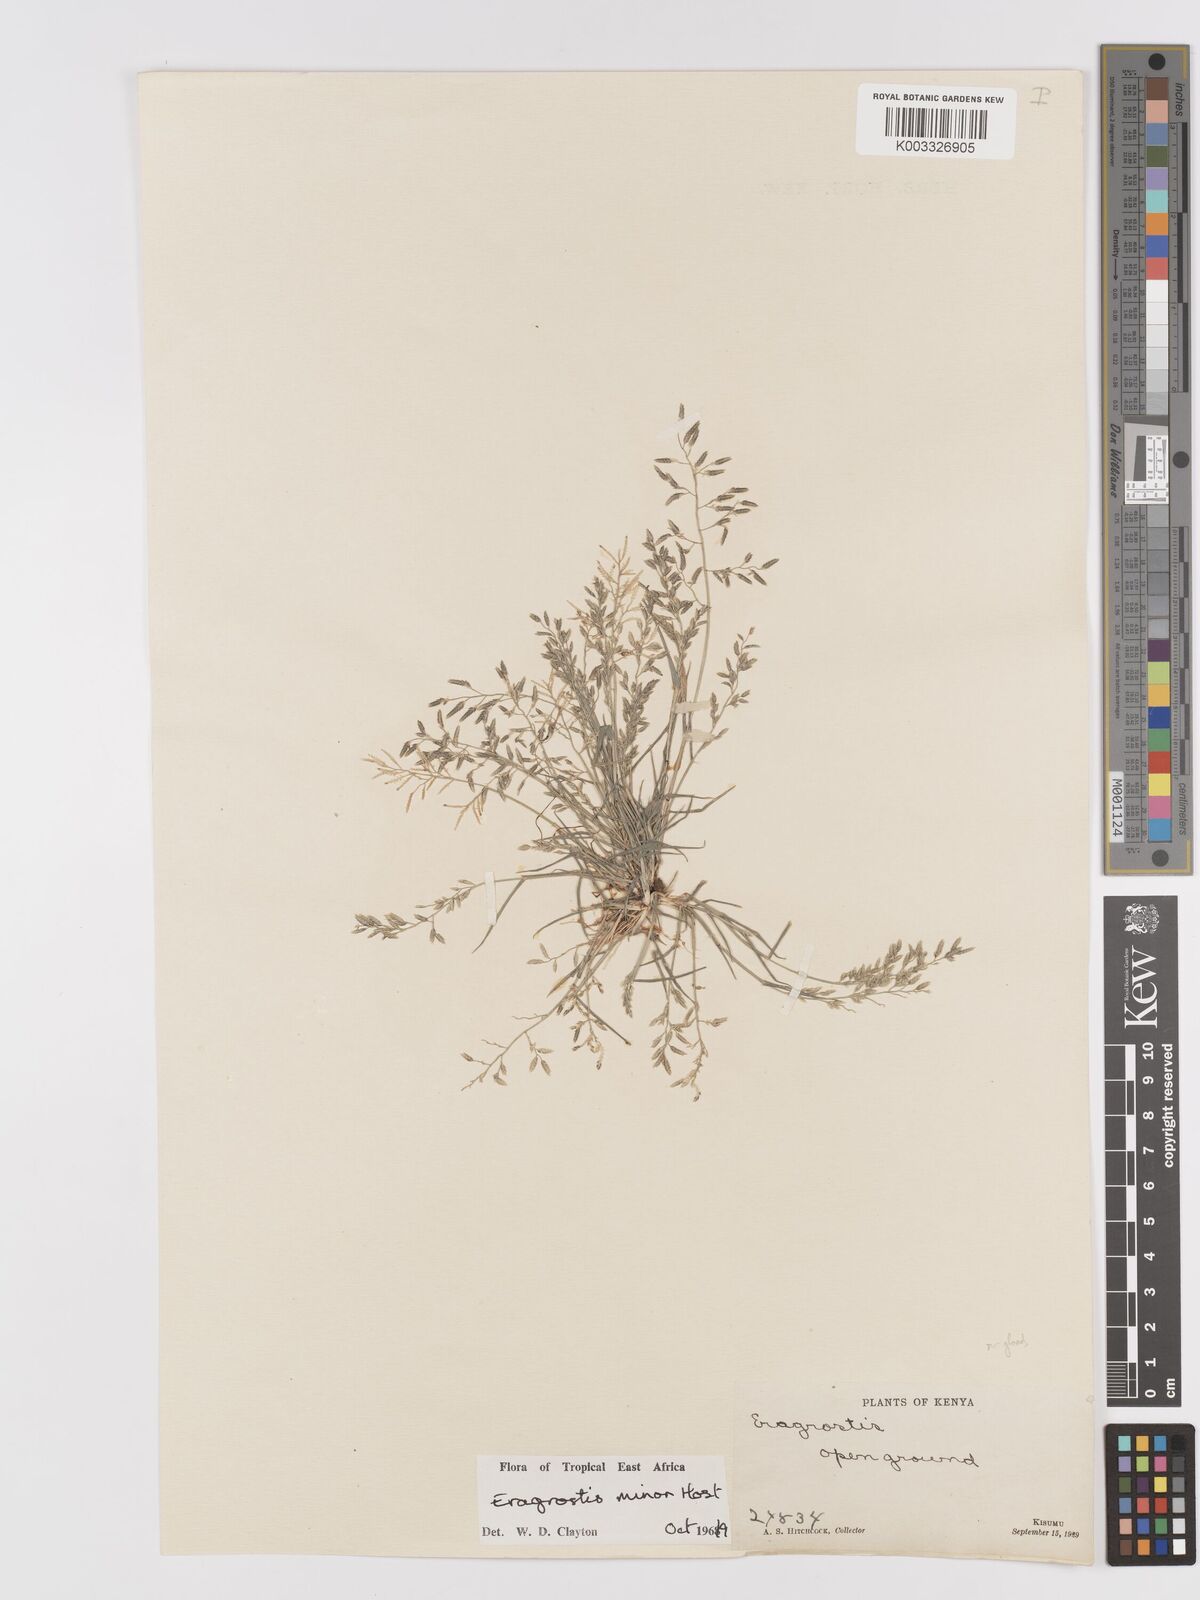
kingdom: Plantae
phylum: Tracheophyta
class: Liliopsida
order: Poales
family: Poaceae
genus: Eragrostis
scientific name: Eragrostis minor
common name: Small love-grass
